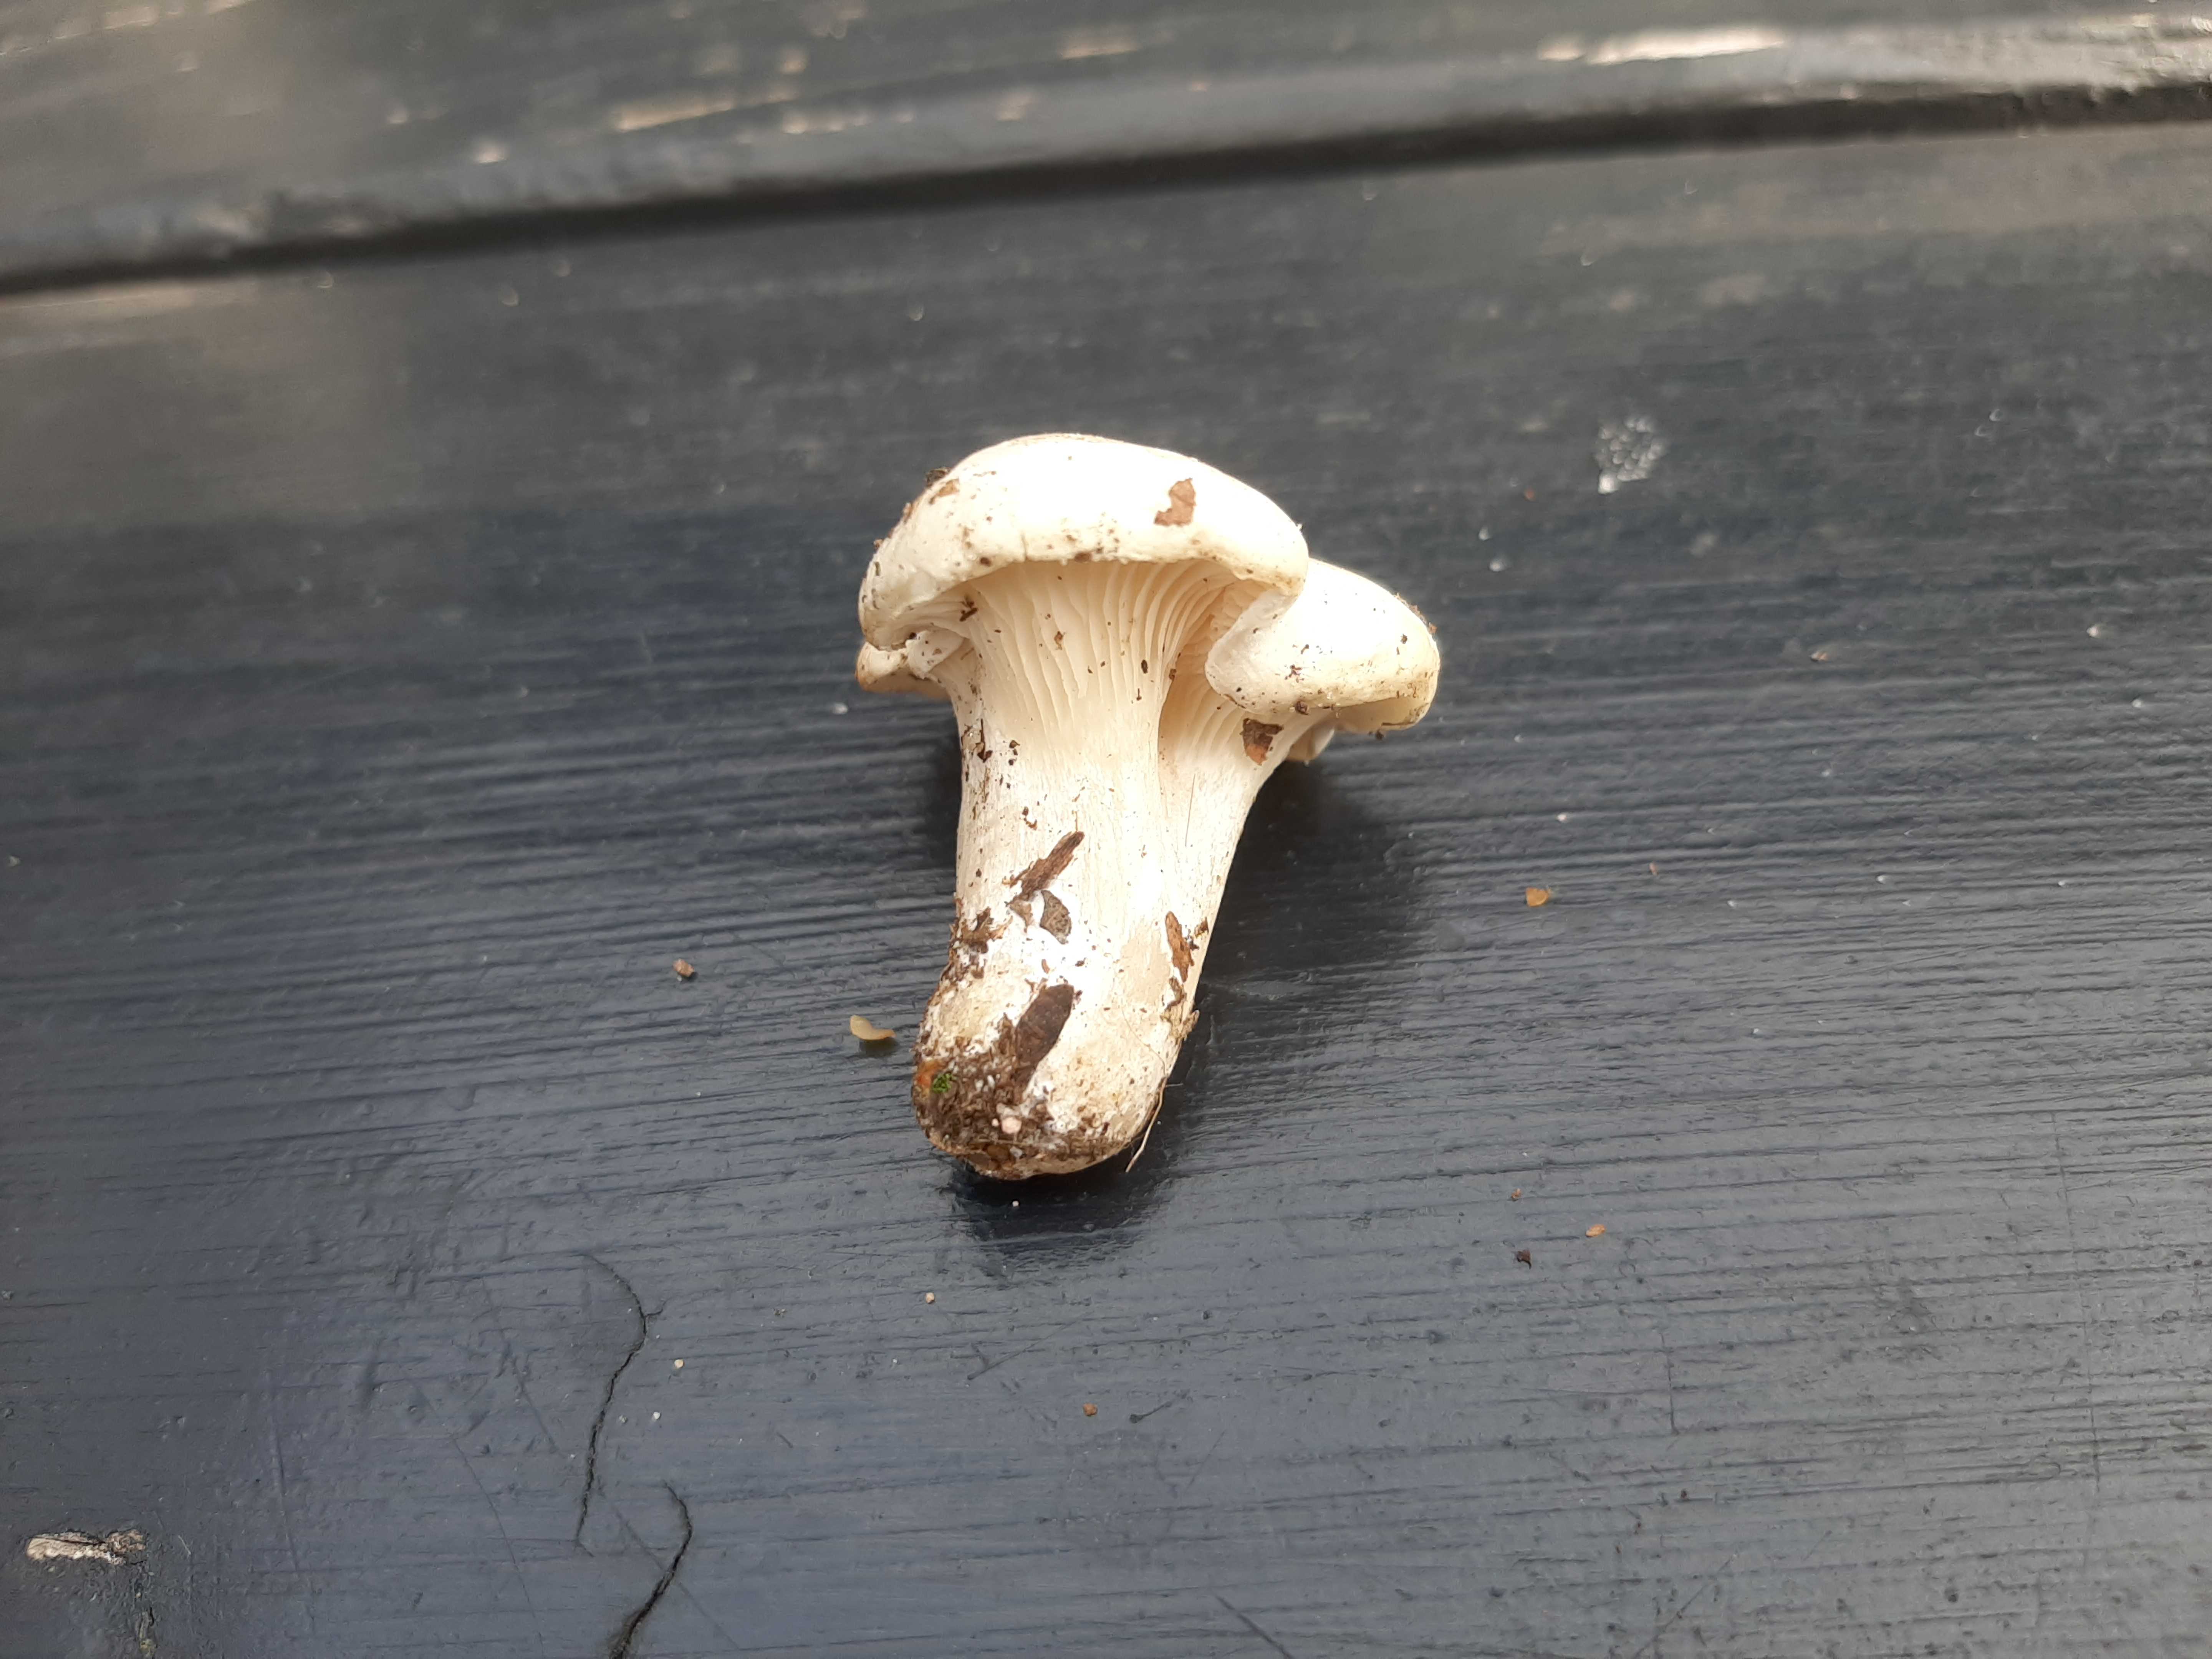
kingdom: Fungi
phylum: Basidiomycota
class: Agaricomycetes
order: Cantharellales
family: Hydnaceae
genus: Cantharellus
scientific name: Cantharellus
